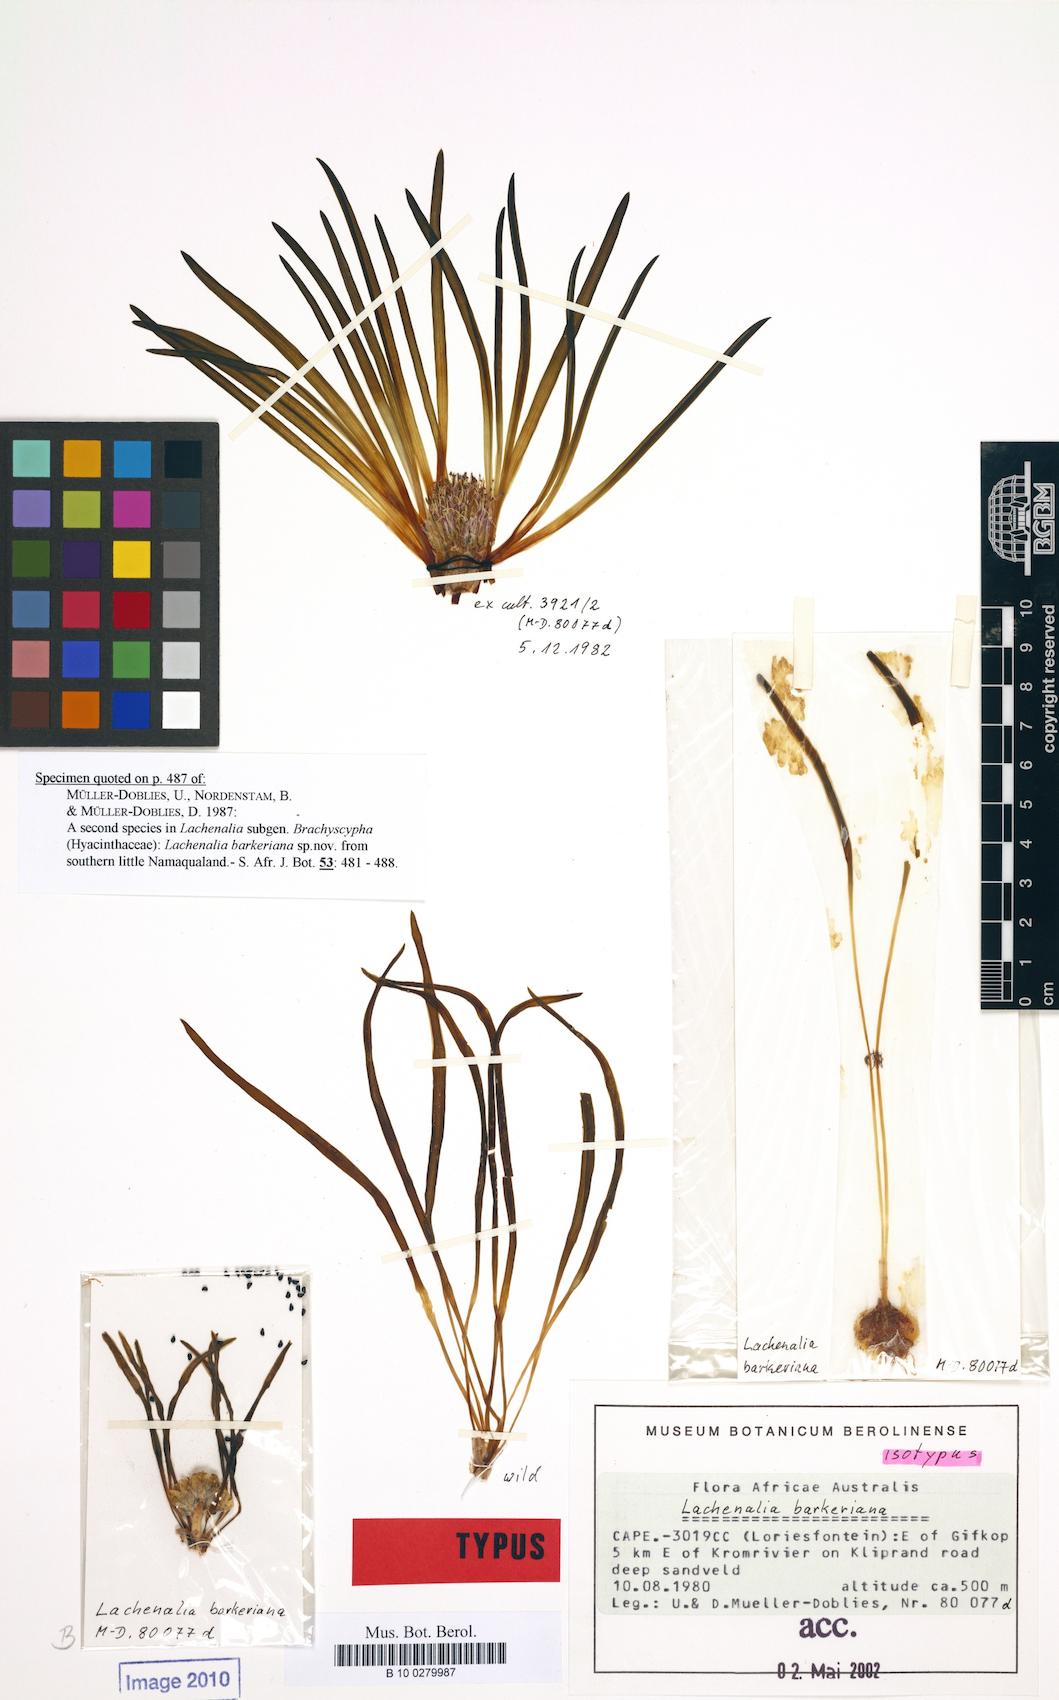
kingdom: Plantae
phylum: Tracheophyta
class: Liliopsida
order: Asparagales
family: Asparagaceae
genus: Lachenalia
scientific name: Lachenalia barkeriana
